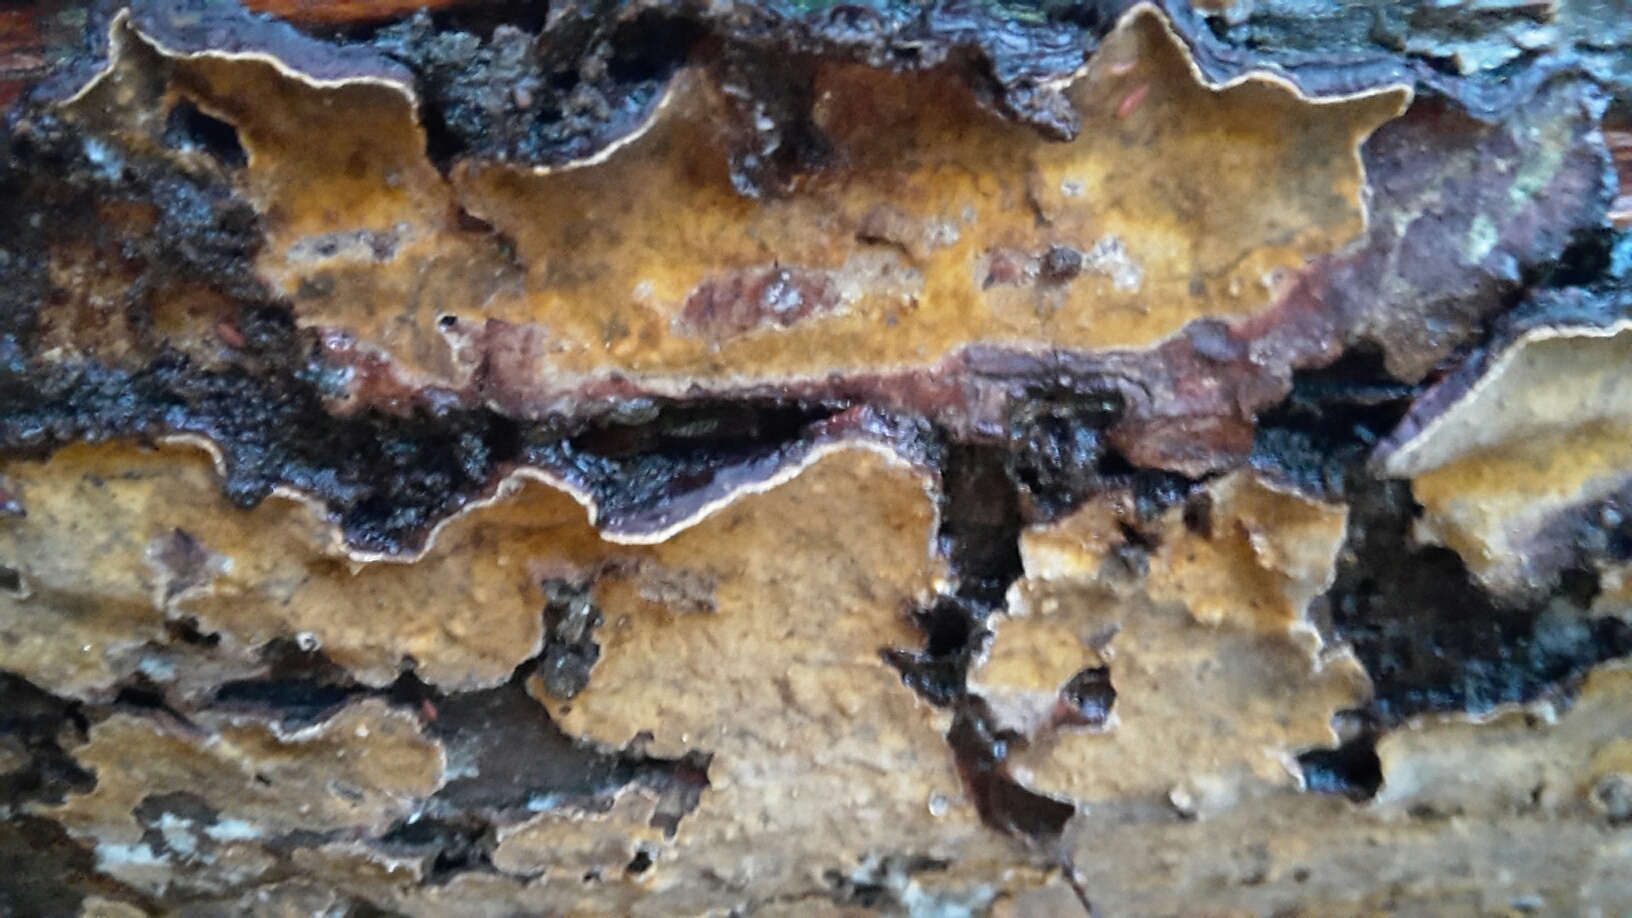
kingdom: Fungi
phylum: Basidiomycota
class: Agaricomycetes
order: Russulales
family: Stereaceae
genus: Stereum
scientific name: Stereum rugosum
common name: rynket lædersvamp
